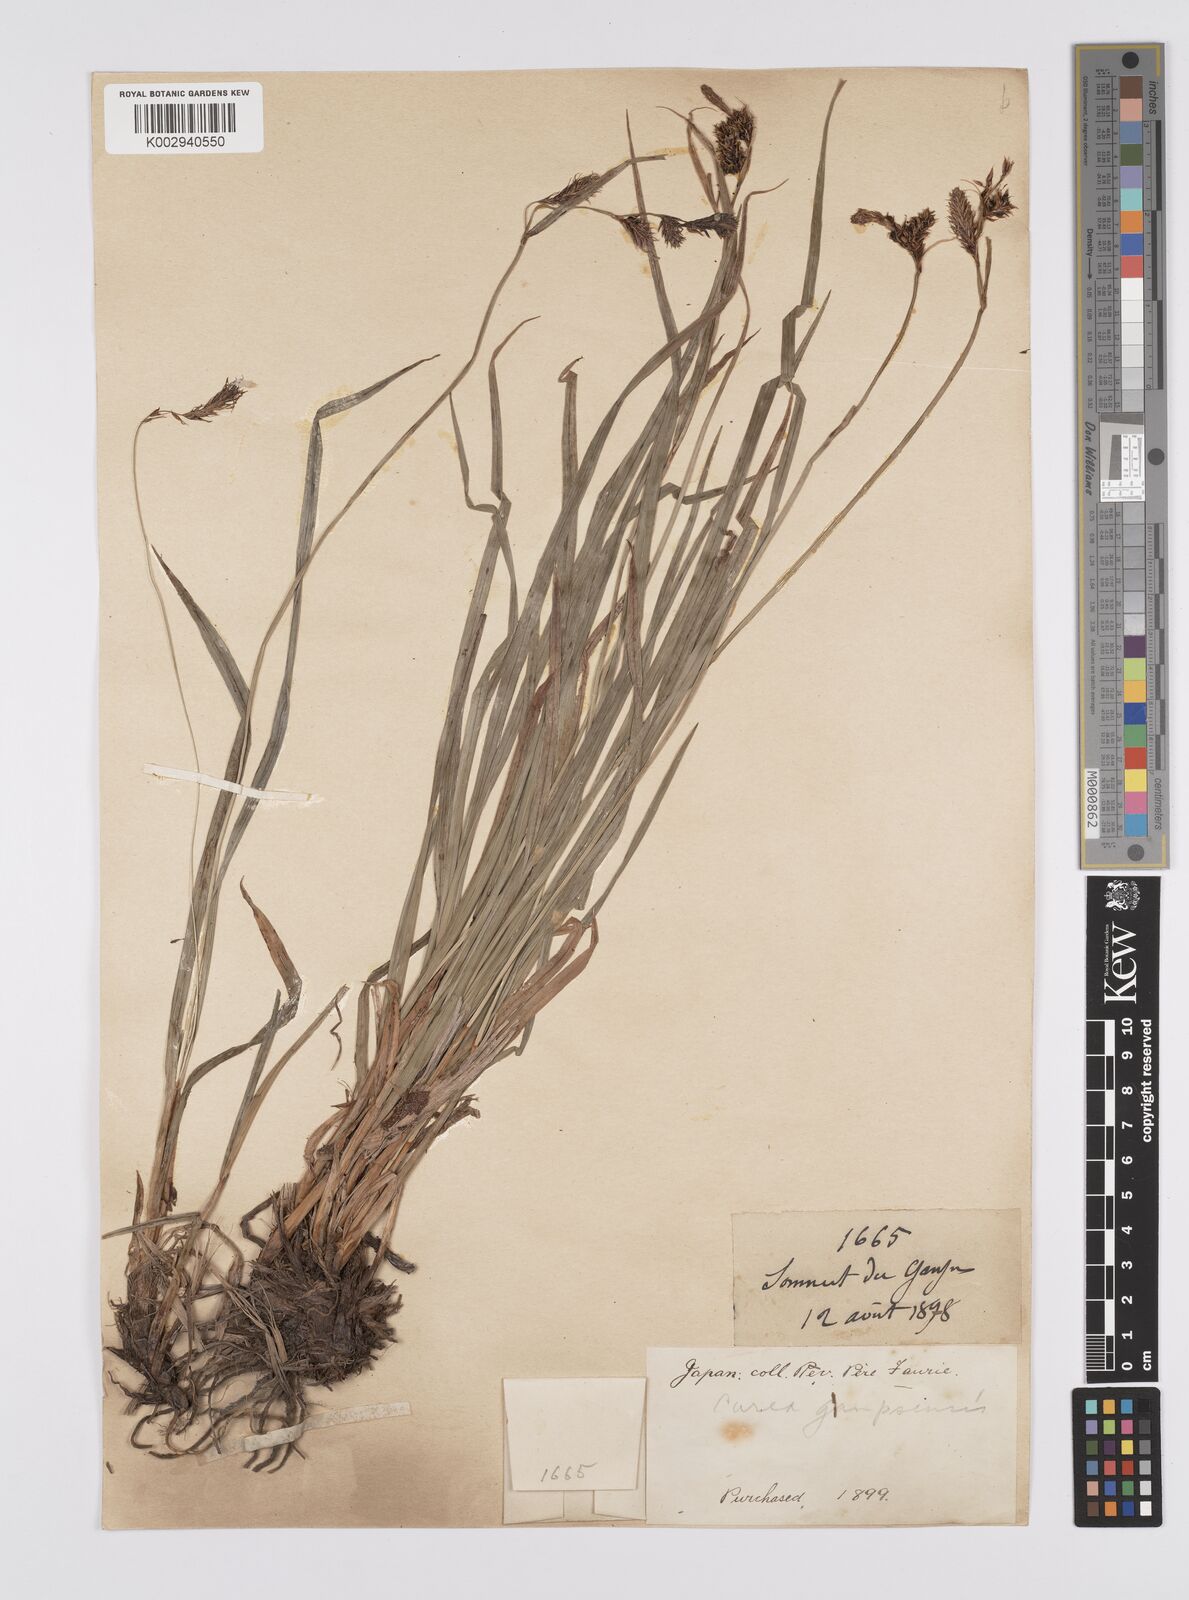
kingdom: Plantae
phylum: Tracheophyta
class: Liliopsida
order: Poales
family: Cyperaceae
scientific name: Cyperaceae
